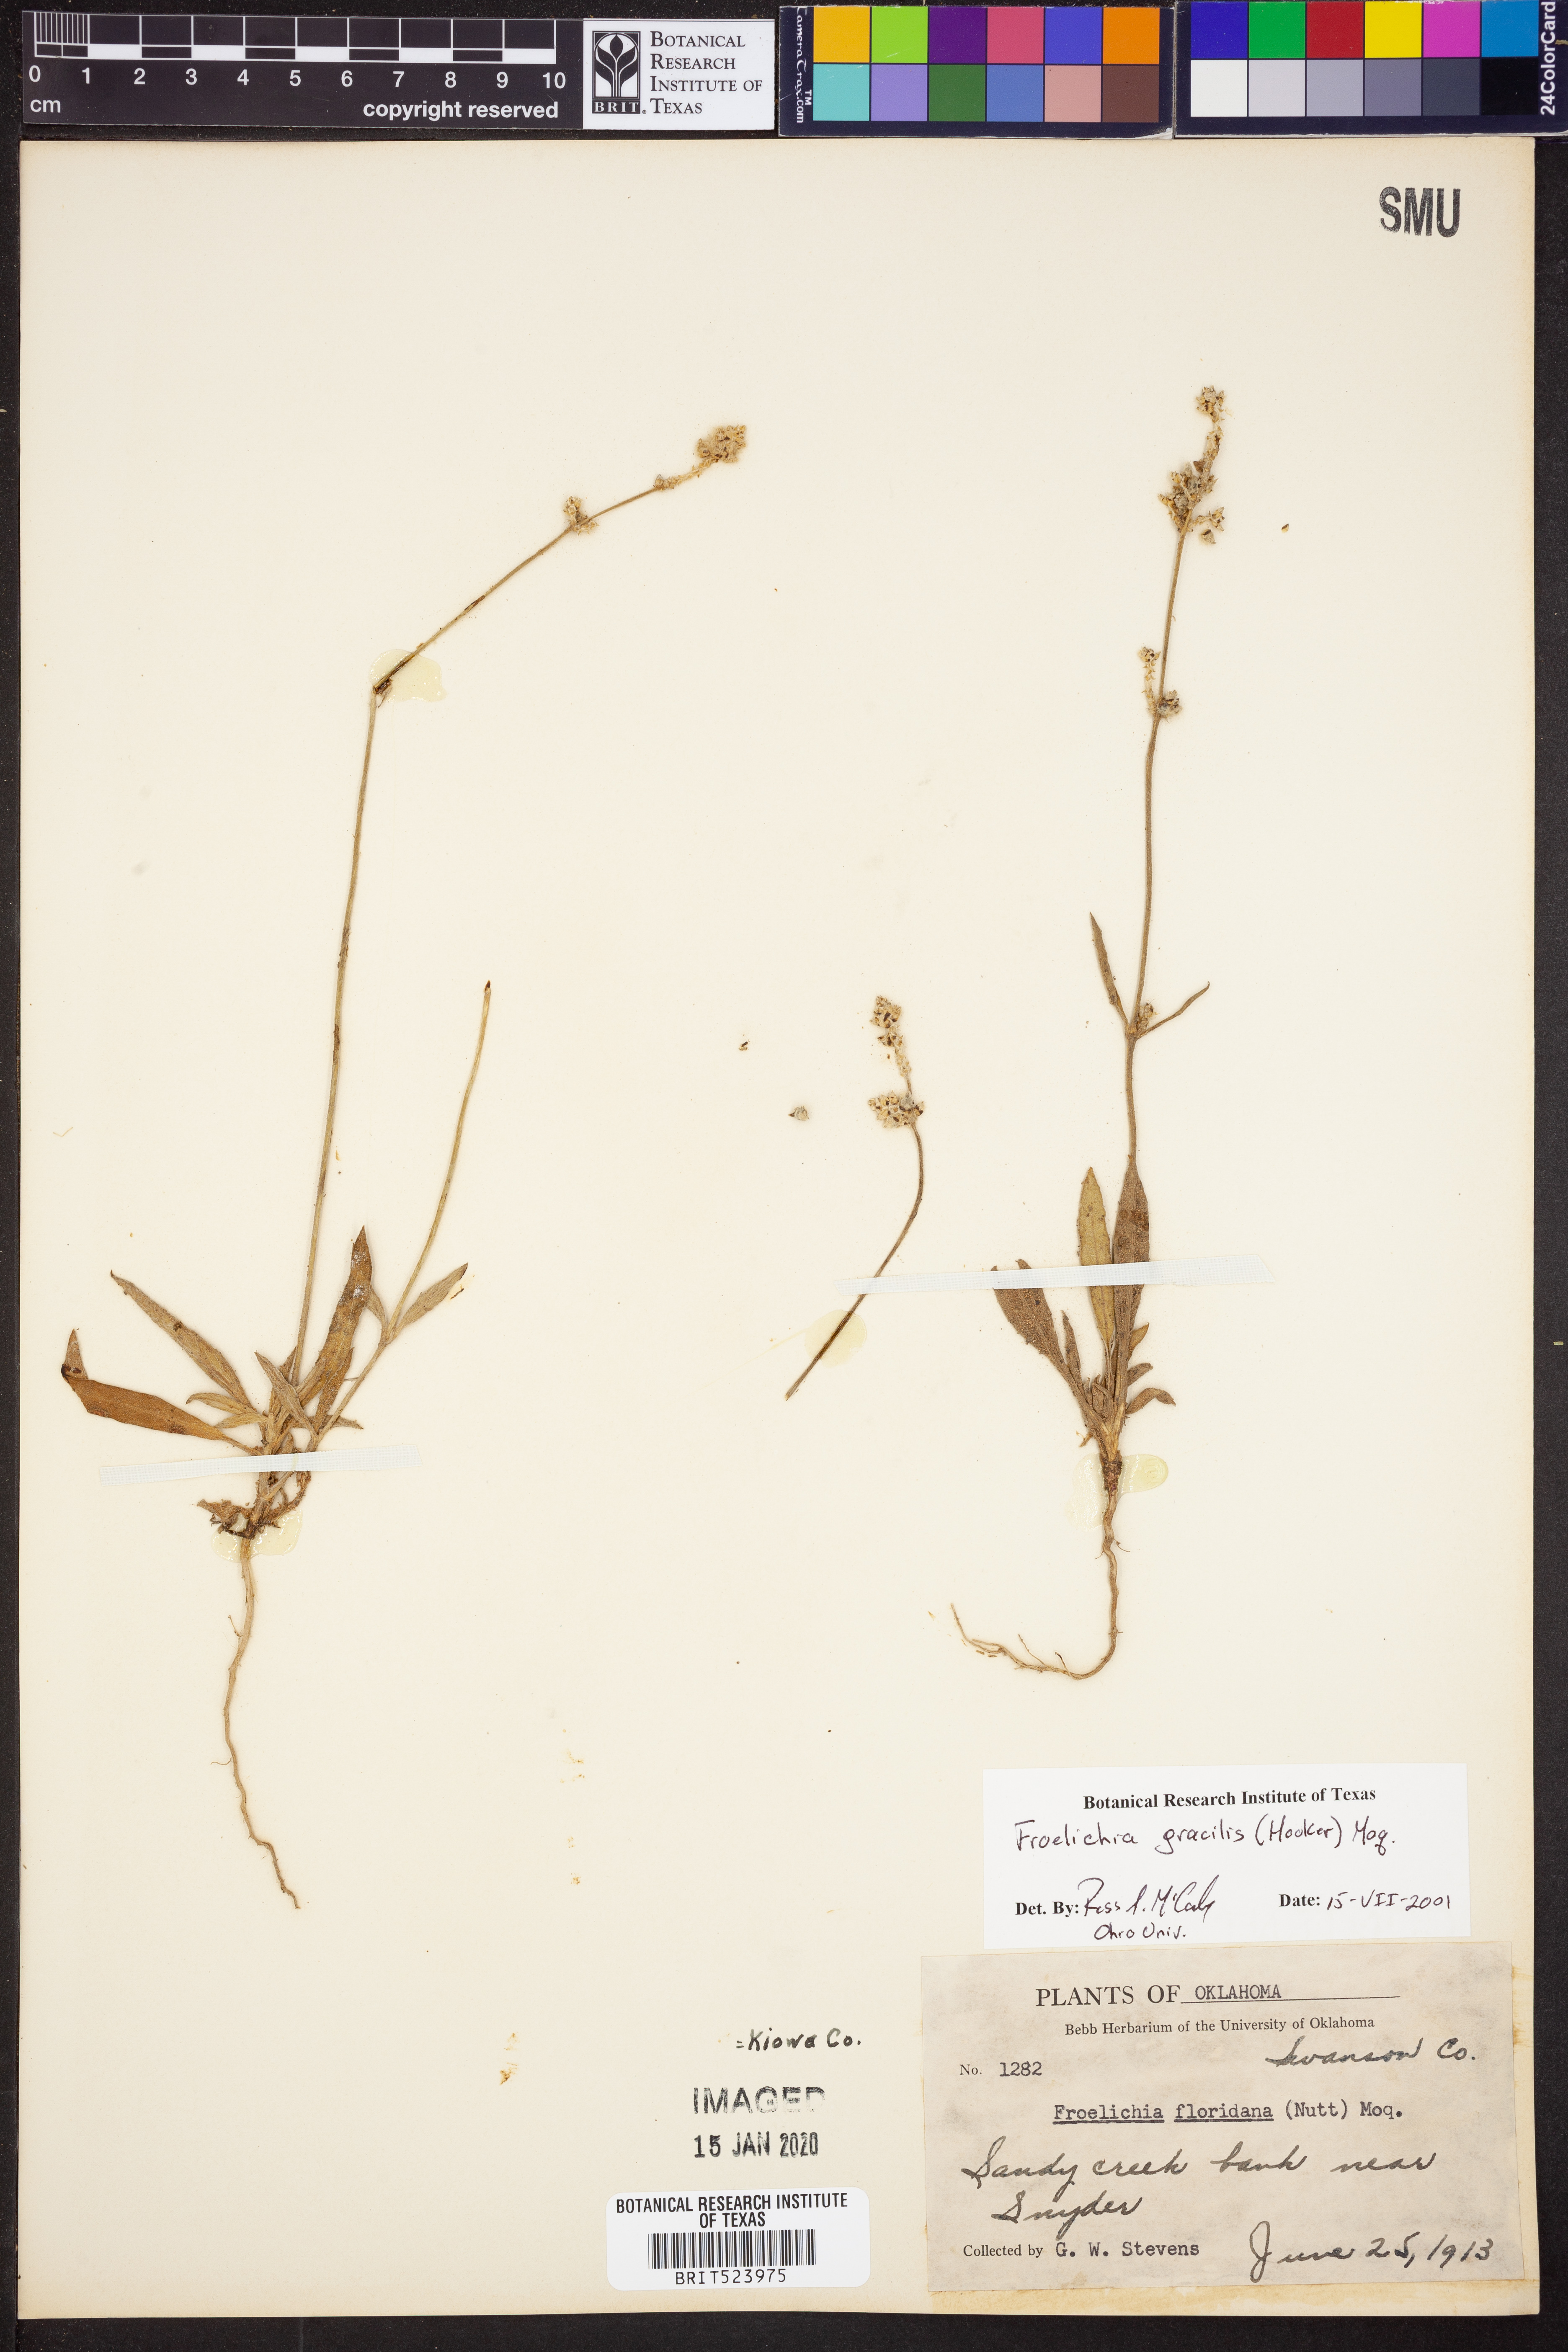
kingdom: Plantae
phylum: Tracheophyta
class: Magnoliopsida
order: Caryophyllales
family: Amaranthaceae
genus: Froelichia
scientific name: Froelichia gracilis
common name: Slender cottonweed
